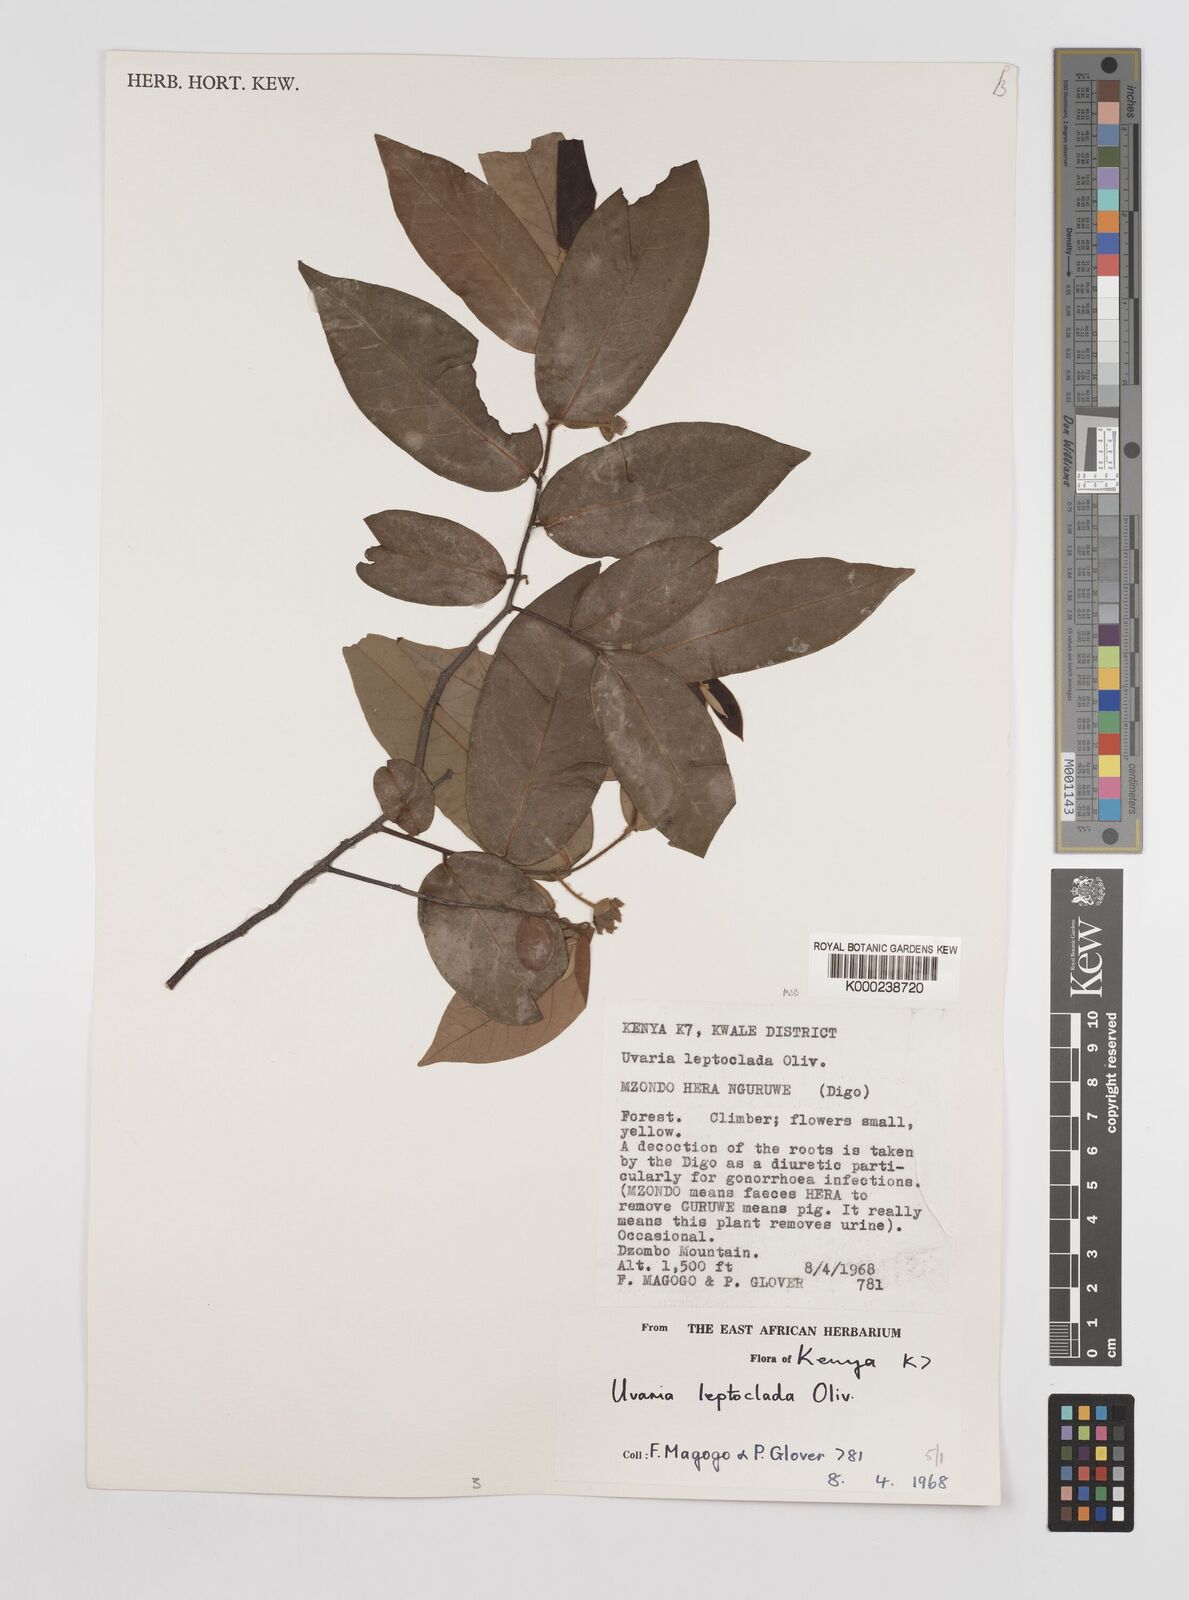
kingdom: Plantae
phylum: Tracheophyta
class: Magnoliopsida
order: Magnoliales
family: Annonaceae
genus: Uvaria
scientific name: Uvaria leptocladon
